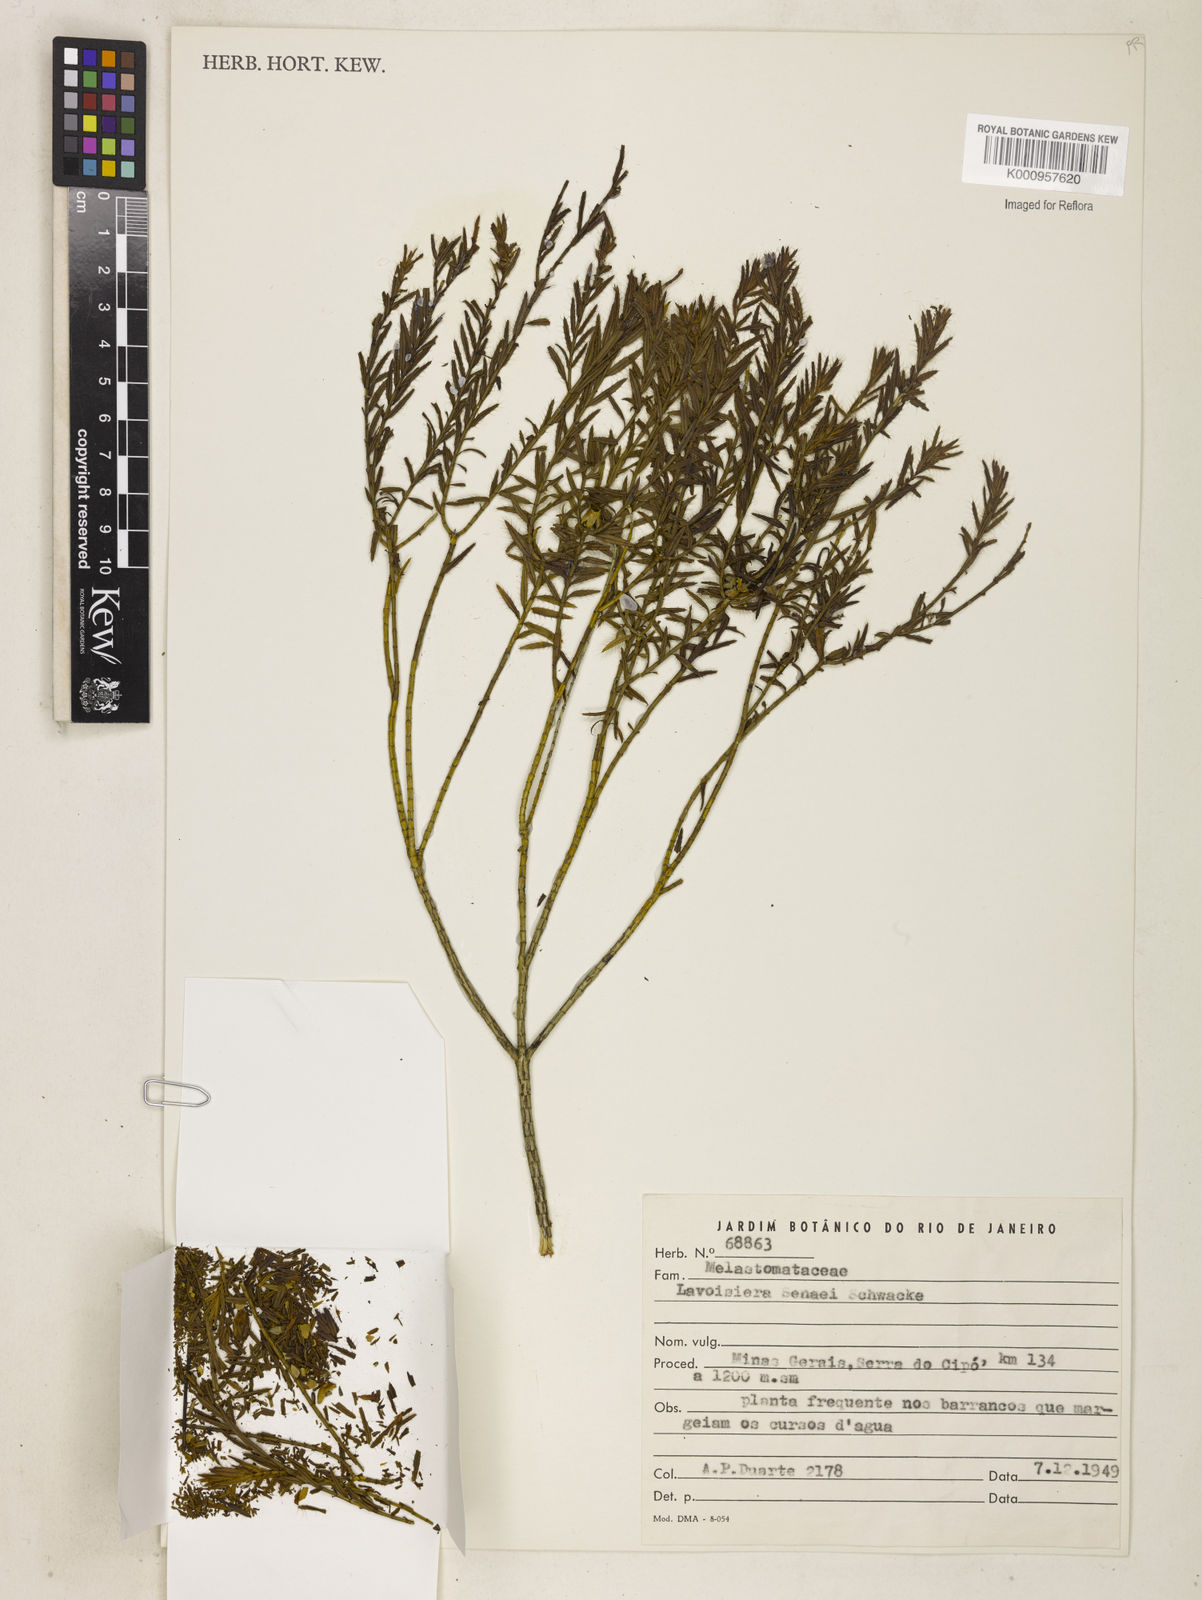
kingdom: Plantae
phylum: Tracheophyta
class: Magnoliopsida
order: Myrtales
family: Melastomataceae
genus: Microlicia
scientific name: Microlicia
